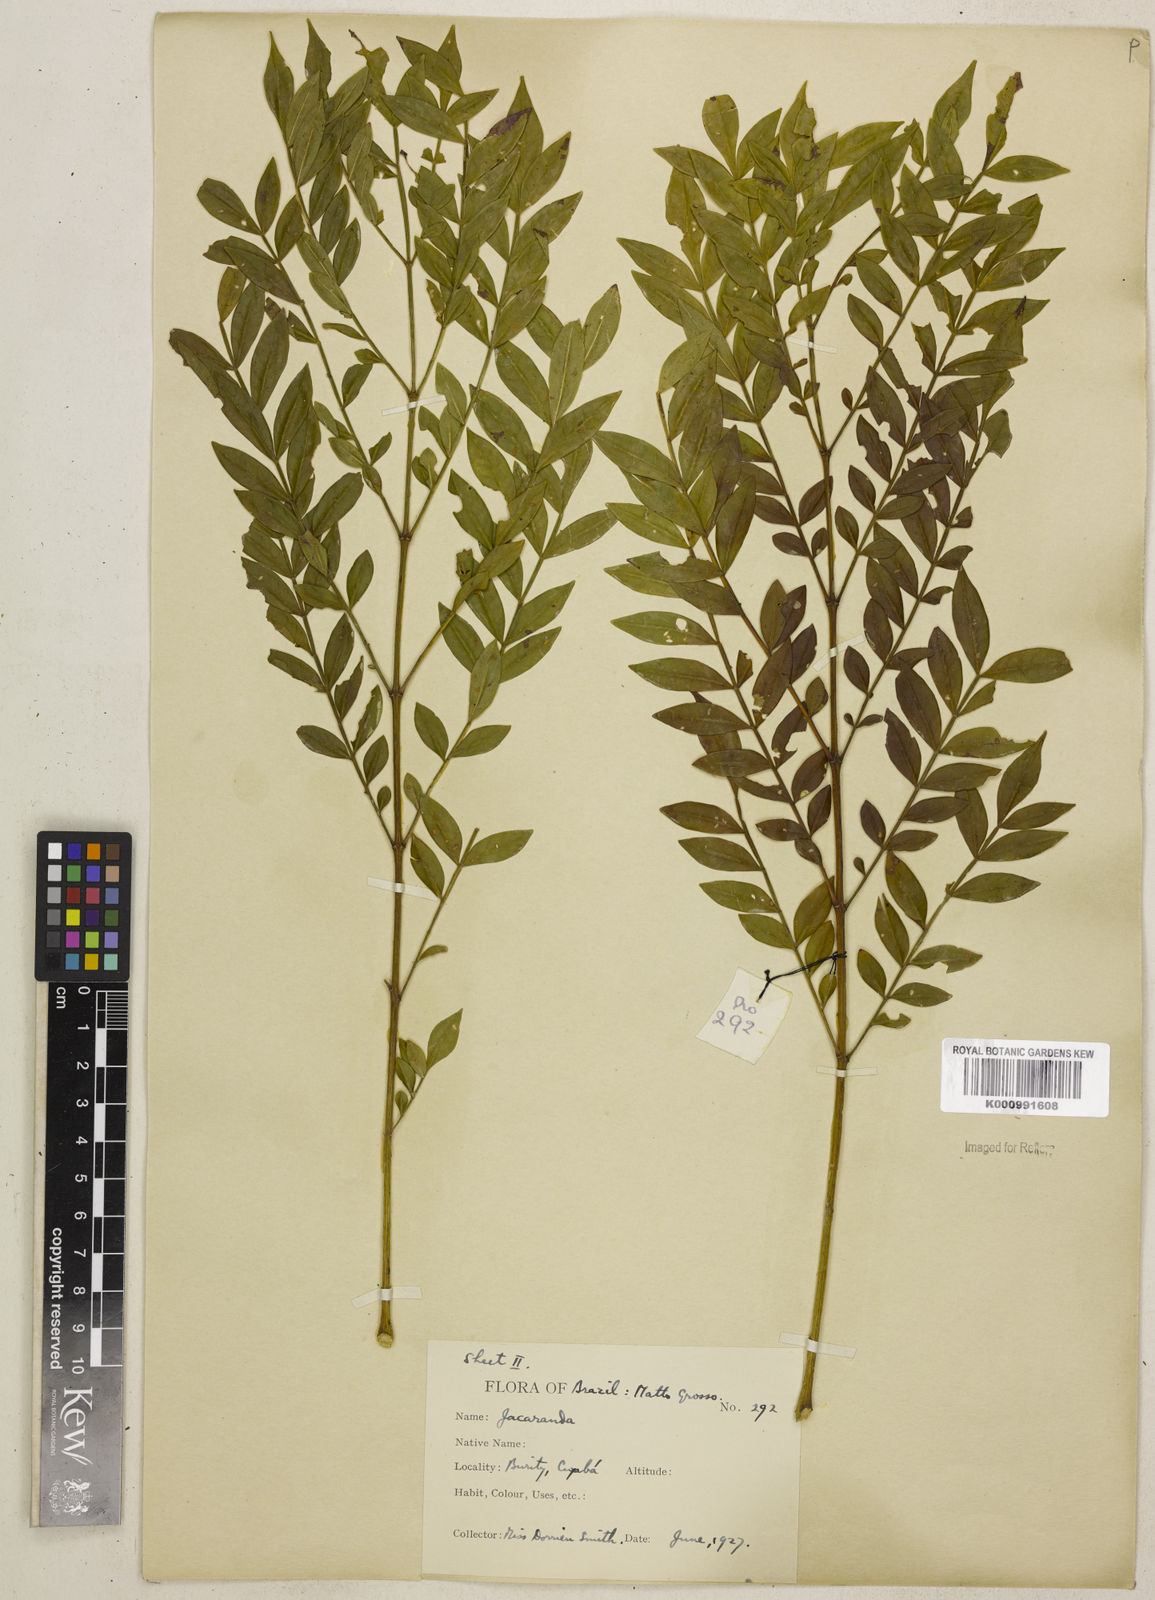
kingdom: Plantae
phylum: Tracheophyta
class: Magnoliopsida
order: Lamiales
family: Bignoniaceae
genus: Jacaranda
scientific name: Jacaranda caroba
